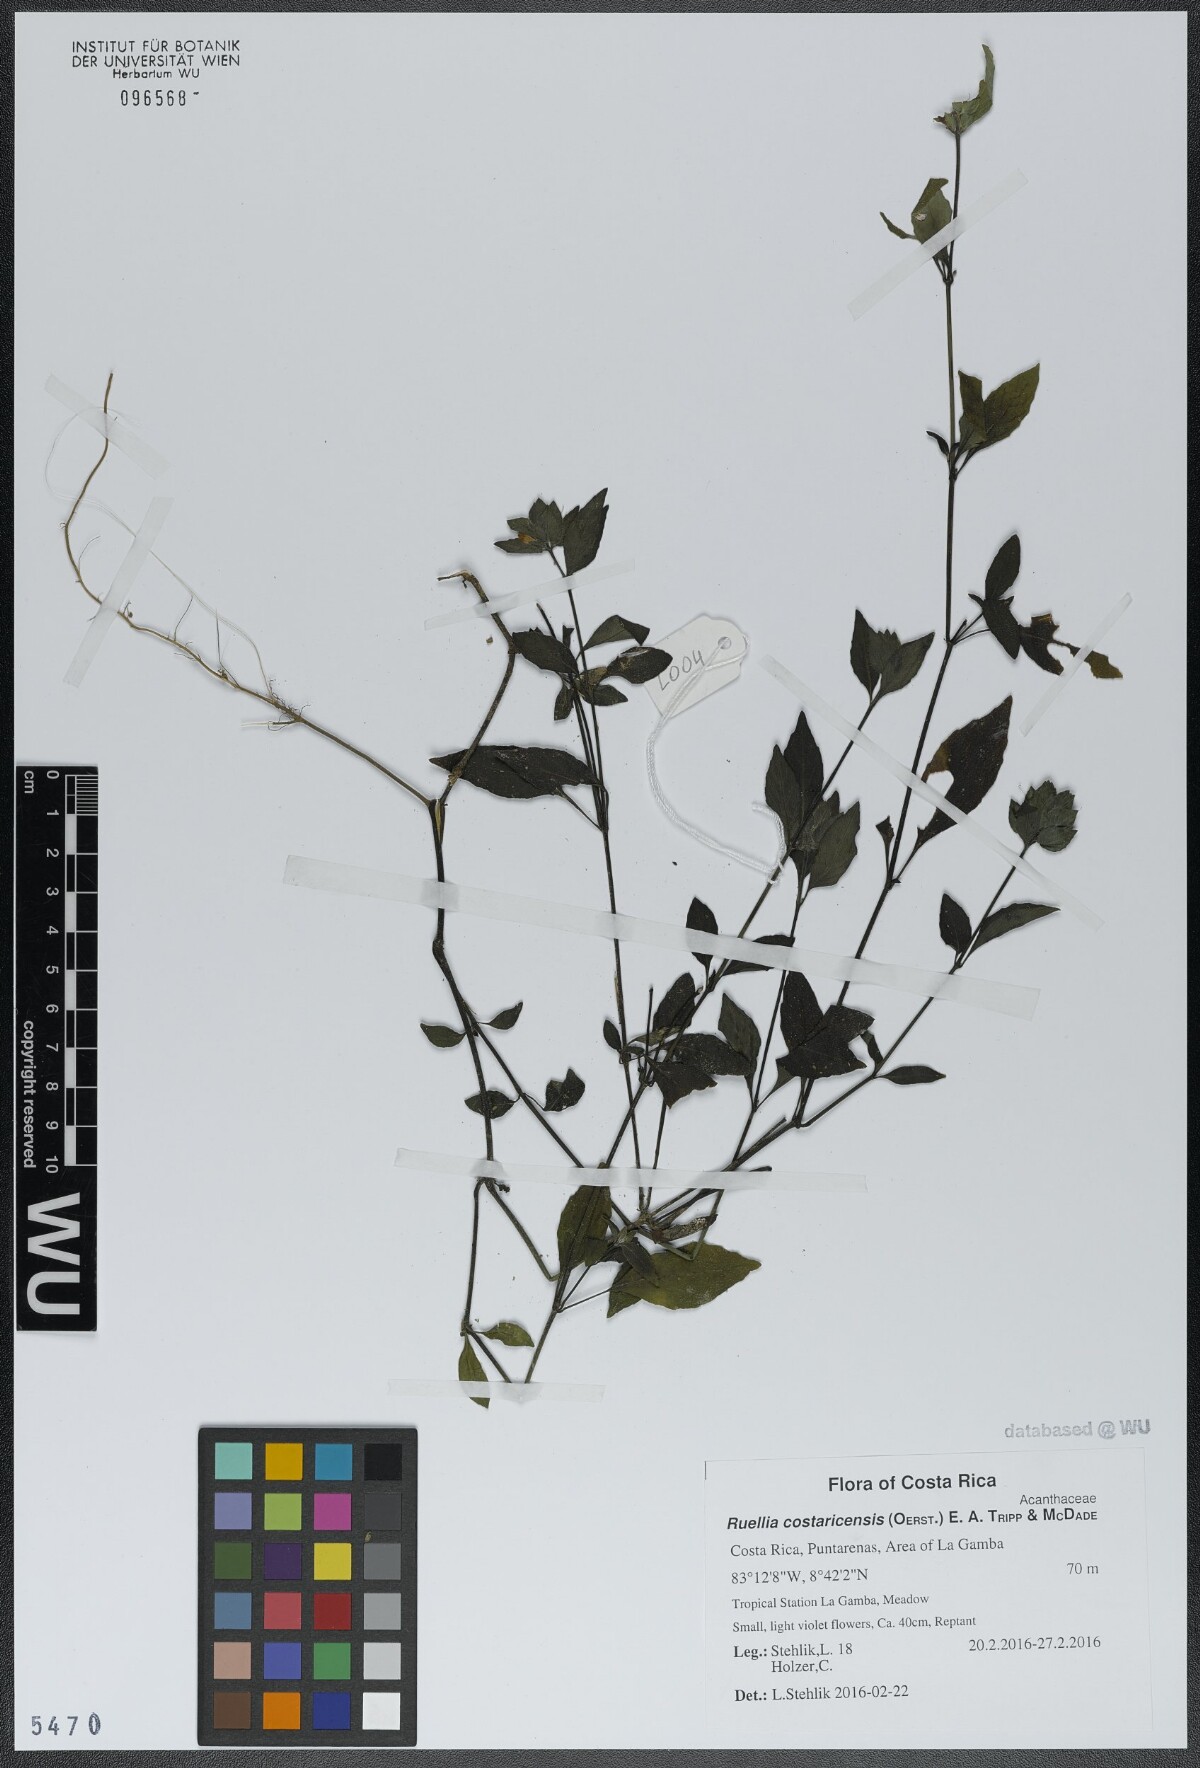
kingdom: Plantae
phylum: Tracheophyta
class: Magnoliopsida
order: Lamiales
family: Acanthaceae
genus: Ruellia
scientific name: Ruellia costaricensis
